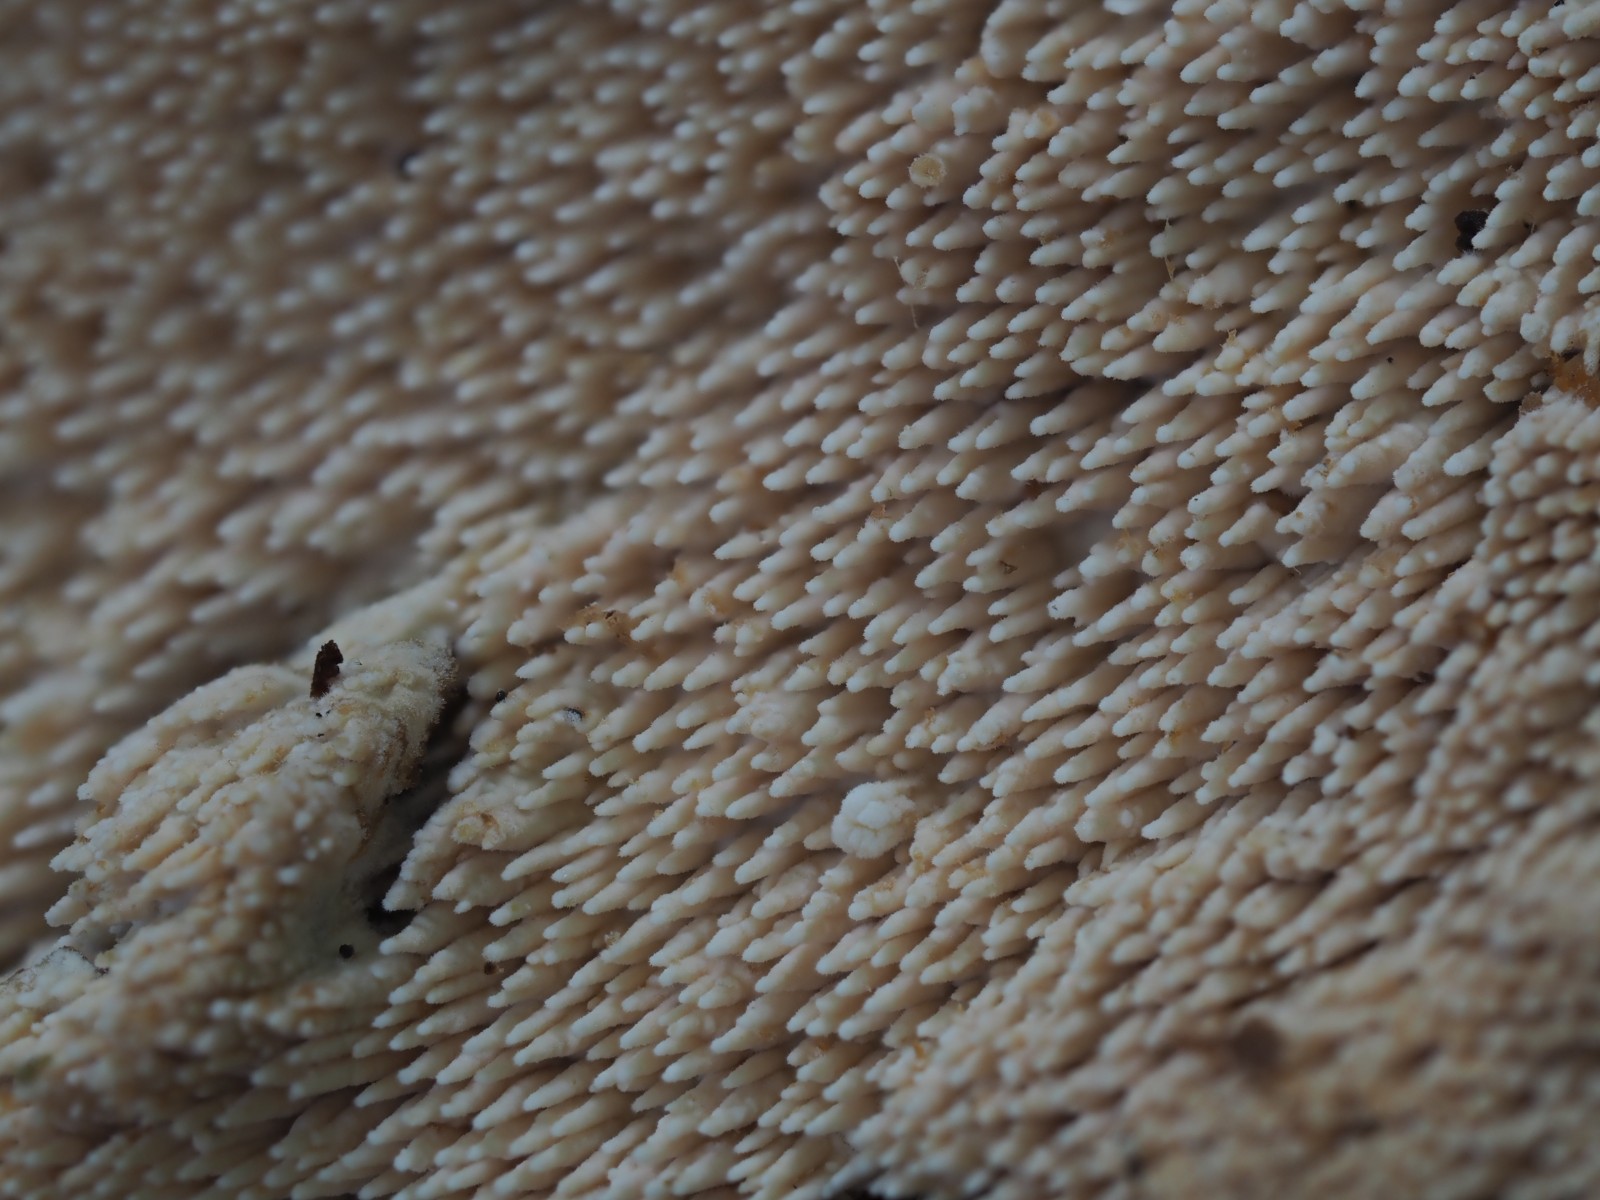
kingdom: Fungi
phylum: Basidiomycota
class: Agaricomycetes
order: Cantharellales
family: Hydnaceae
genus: Sistotrema
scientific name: Sistotrema raduloides
